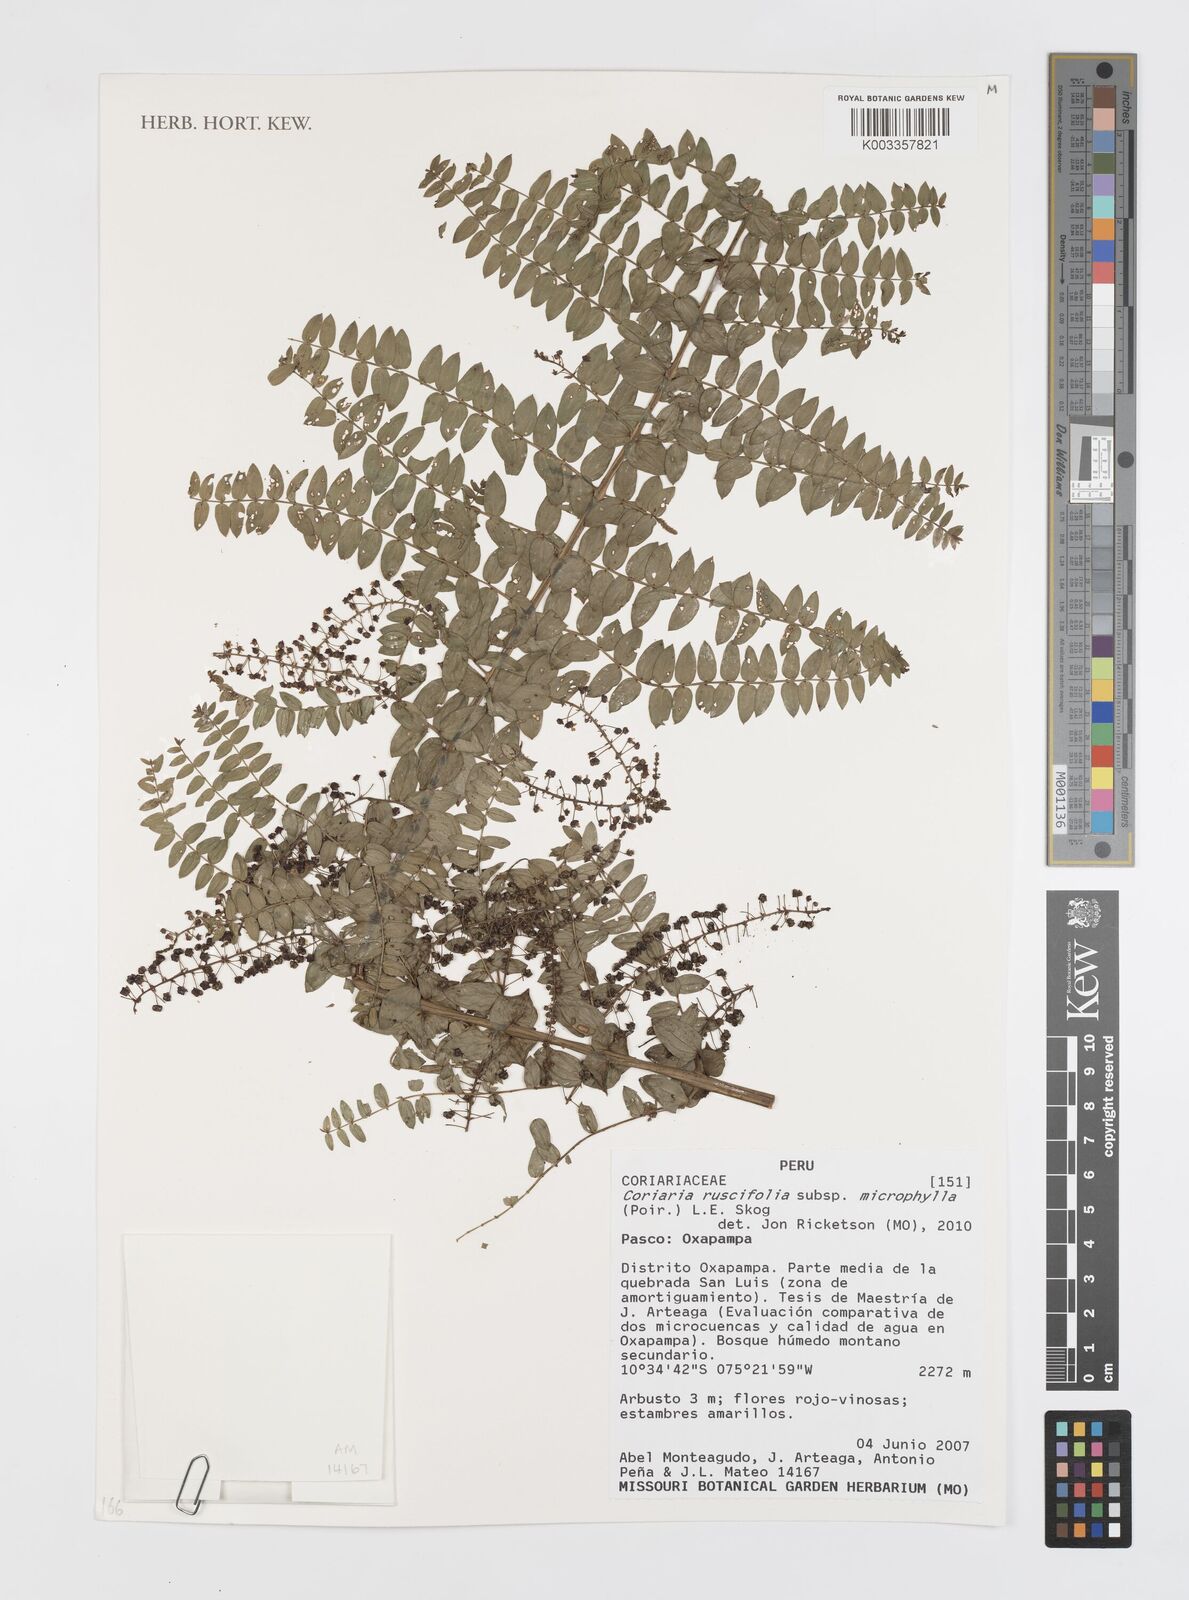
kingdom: Plantae
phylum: Tracheophyta
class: Magnoliopsida
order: Cucurbitales
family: Coriariaceae
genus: Coriaria
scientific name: Coriaria ruscifolia
